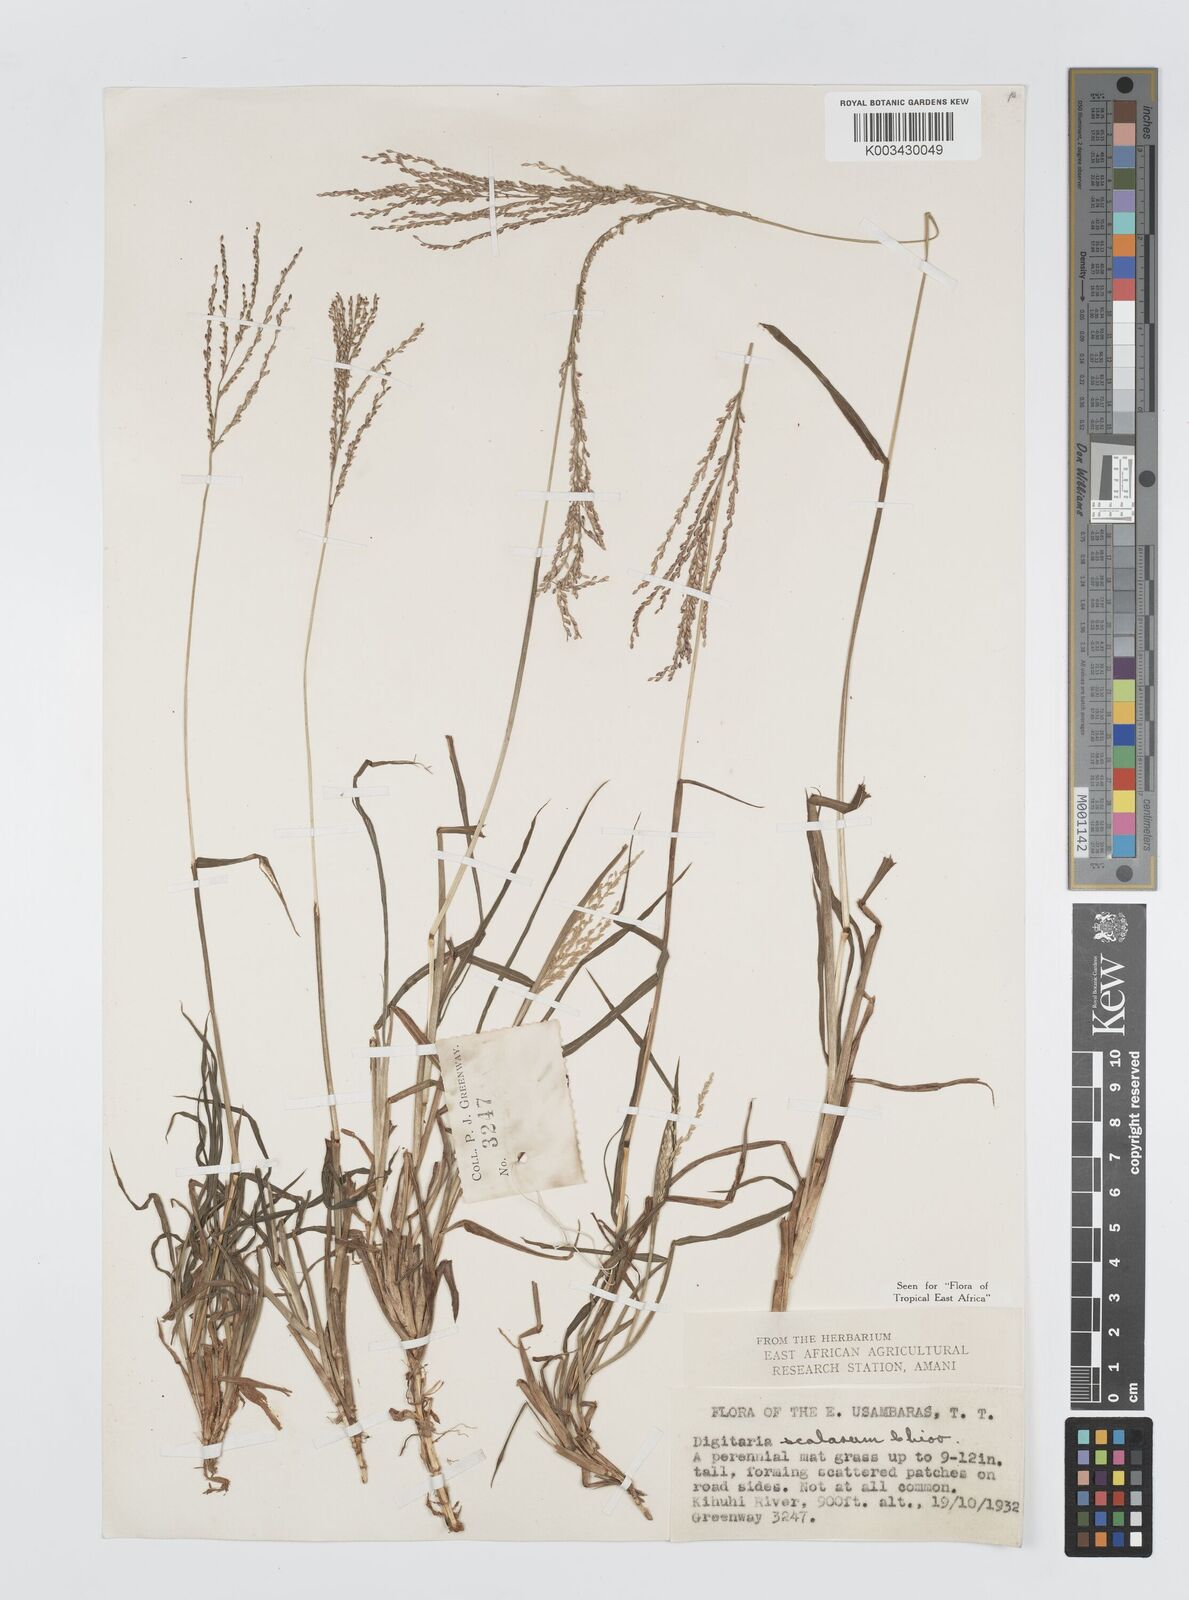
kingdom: Plantae
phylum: Tracheophyta
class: Liliopsida
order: Poales
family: Poaceae
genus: Digitaria
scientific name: Digitaria abyssinica
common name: African couchgrass
